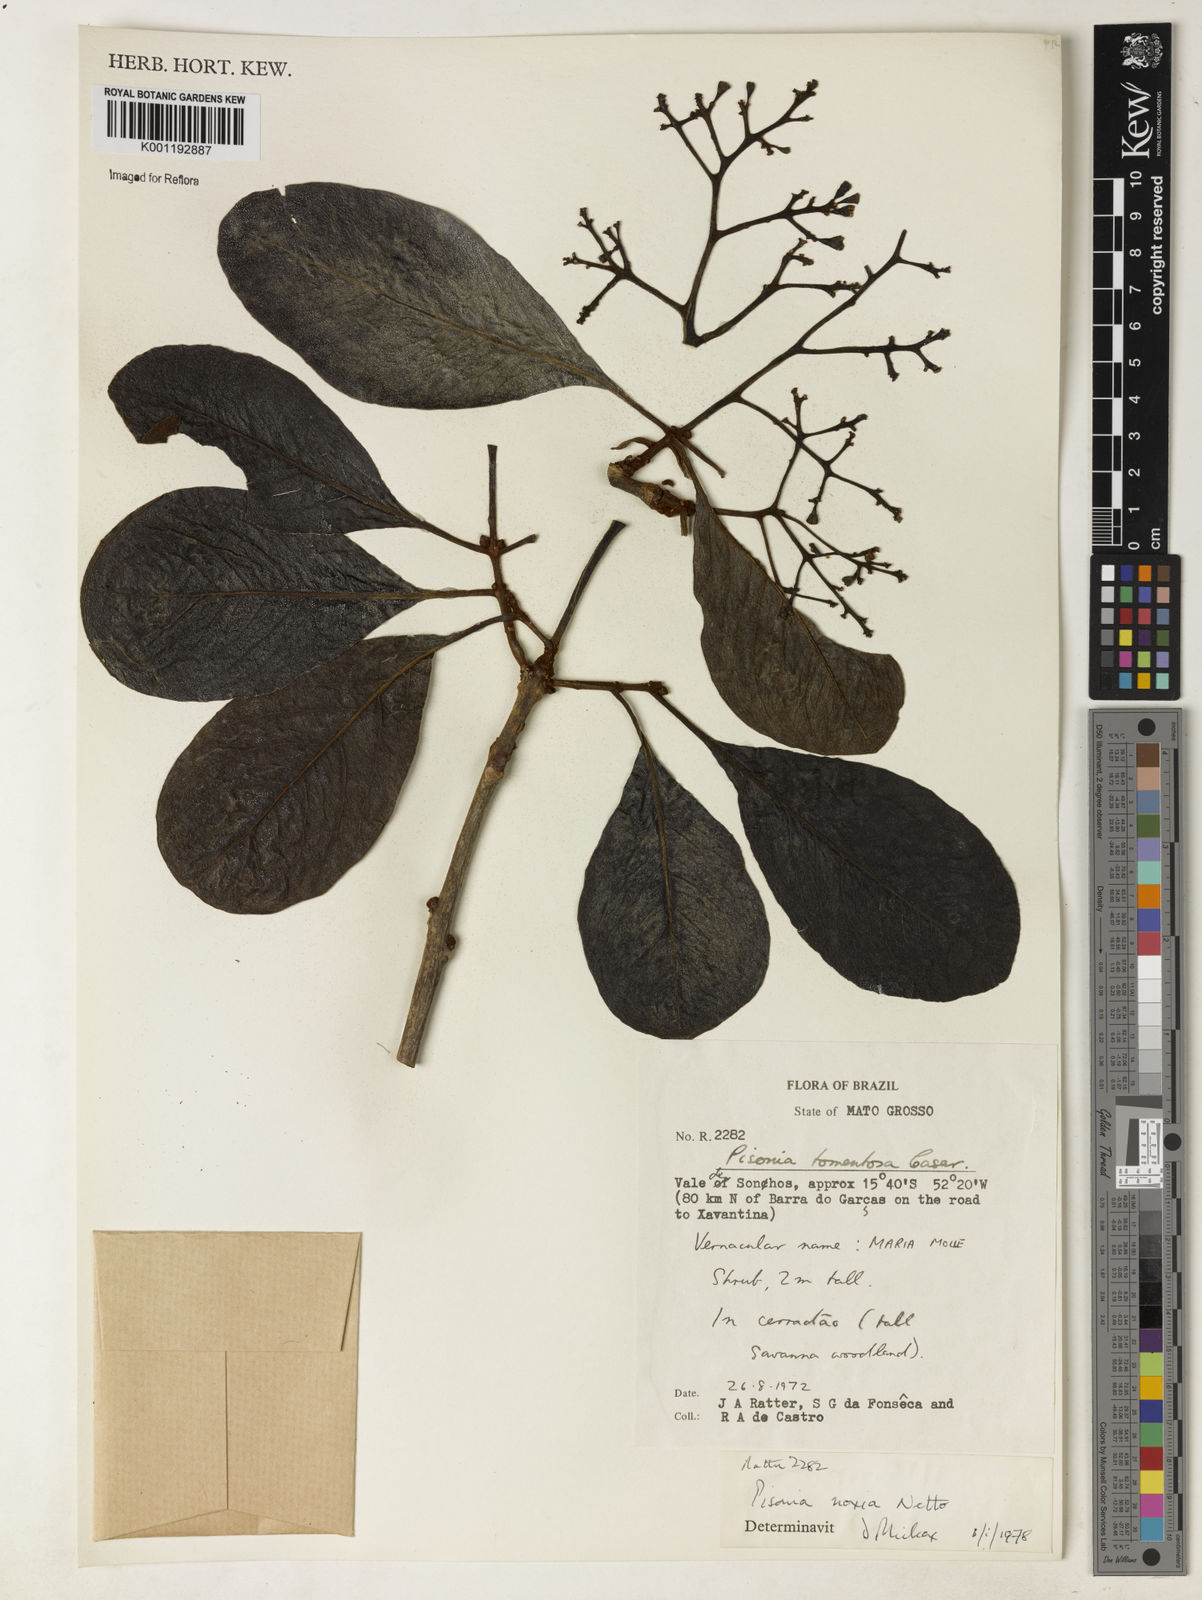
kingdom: Plantae
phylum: Tracheophyta
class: Magnoliopsida
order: Caryophyllales
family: Nyctaginaceae
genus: Guapira
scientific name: Guapira noxia
